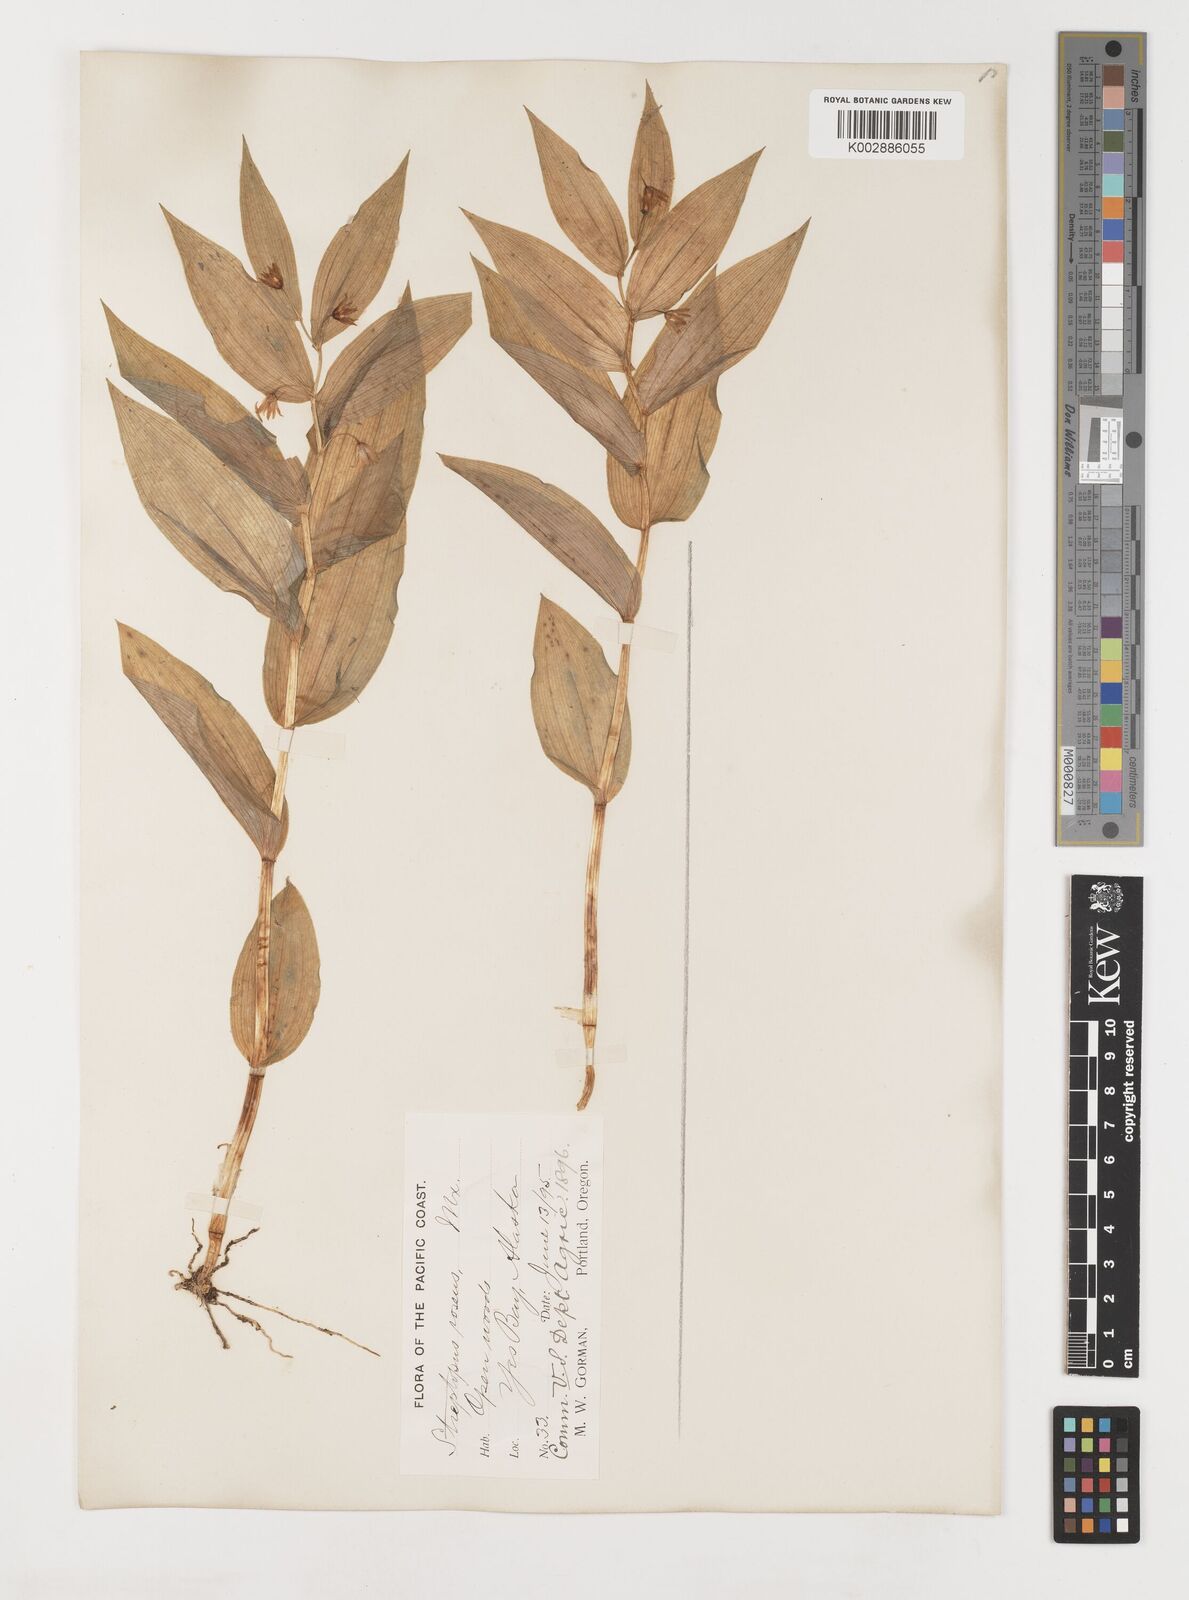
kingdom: Plantae
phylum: Tracheophyta
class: Liliopsida
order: Liliales
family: Liliaceae
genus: Streptopus
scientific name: Streptopus lanceolatus
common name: Rose mandarin
